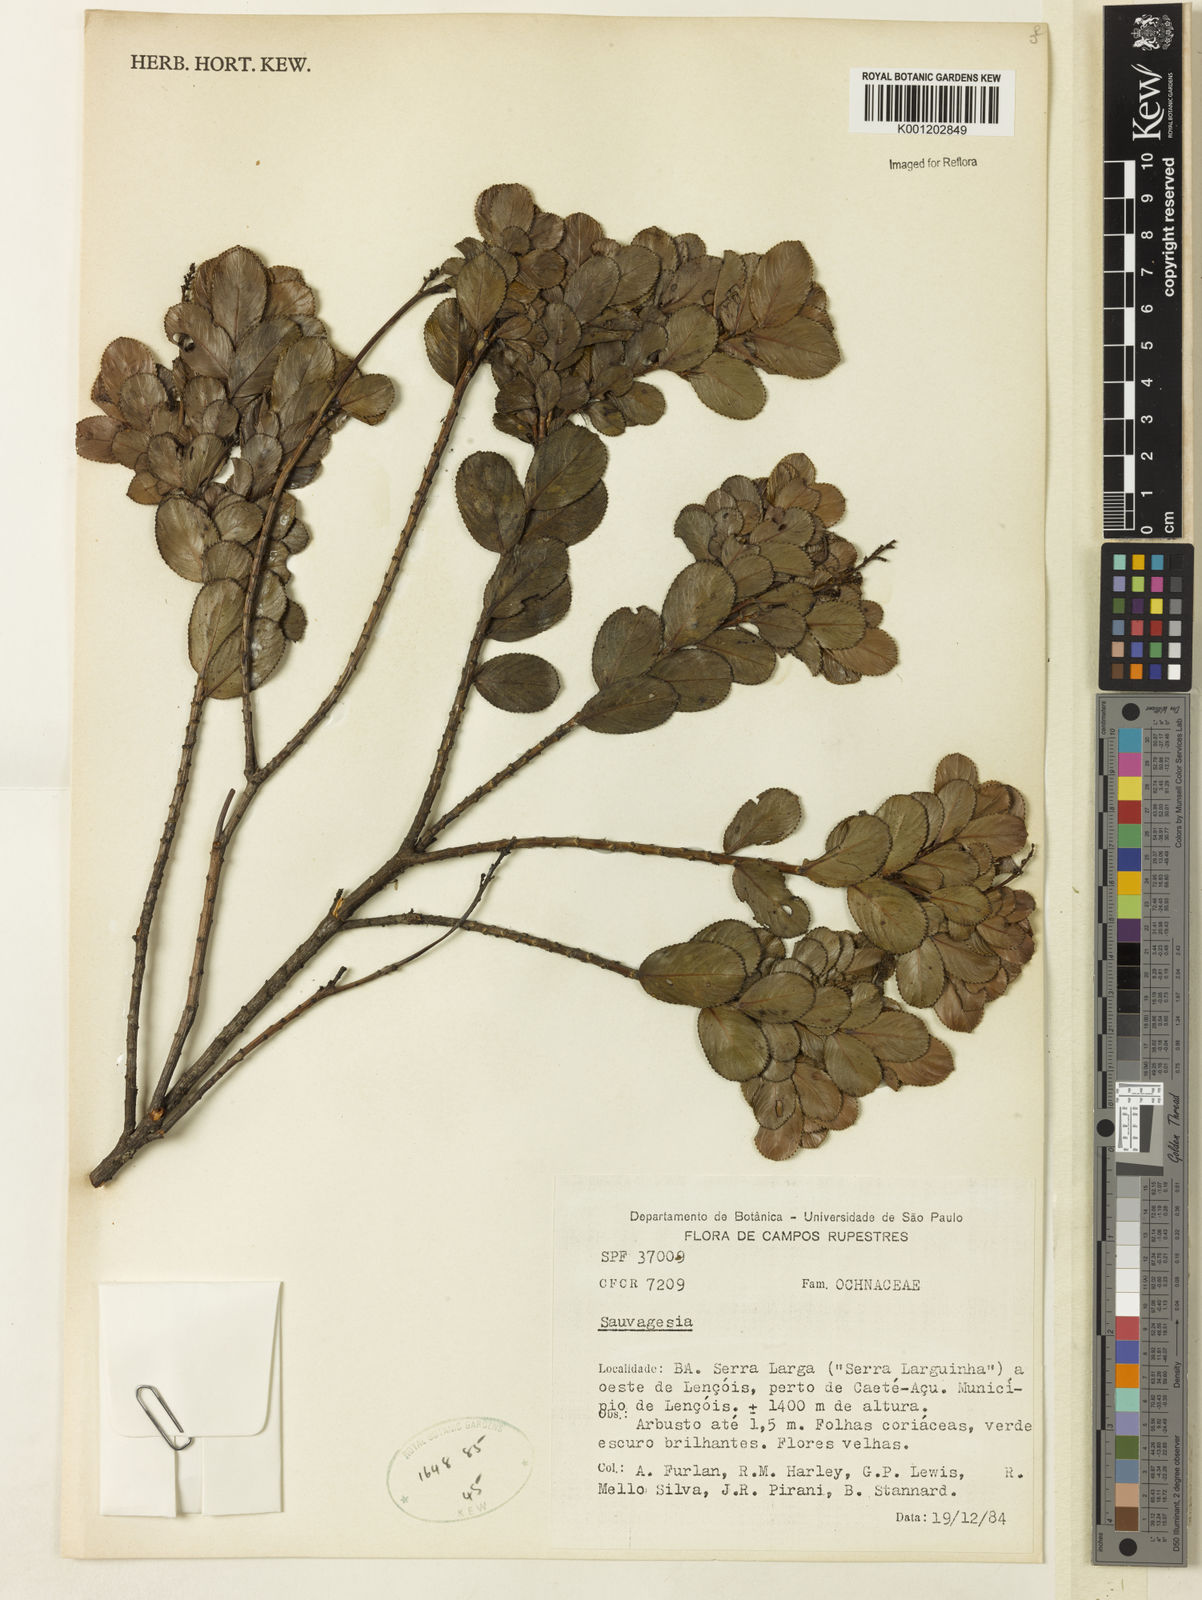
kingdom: Plantae
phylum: Tracheophyta
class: Magnoliopsida
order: Malpighiales
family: Ochnaceae
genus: Sauvagesia
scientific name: Sauvagesia
